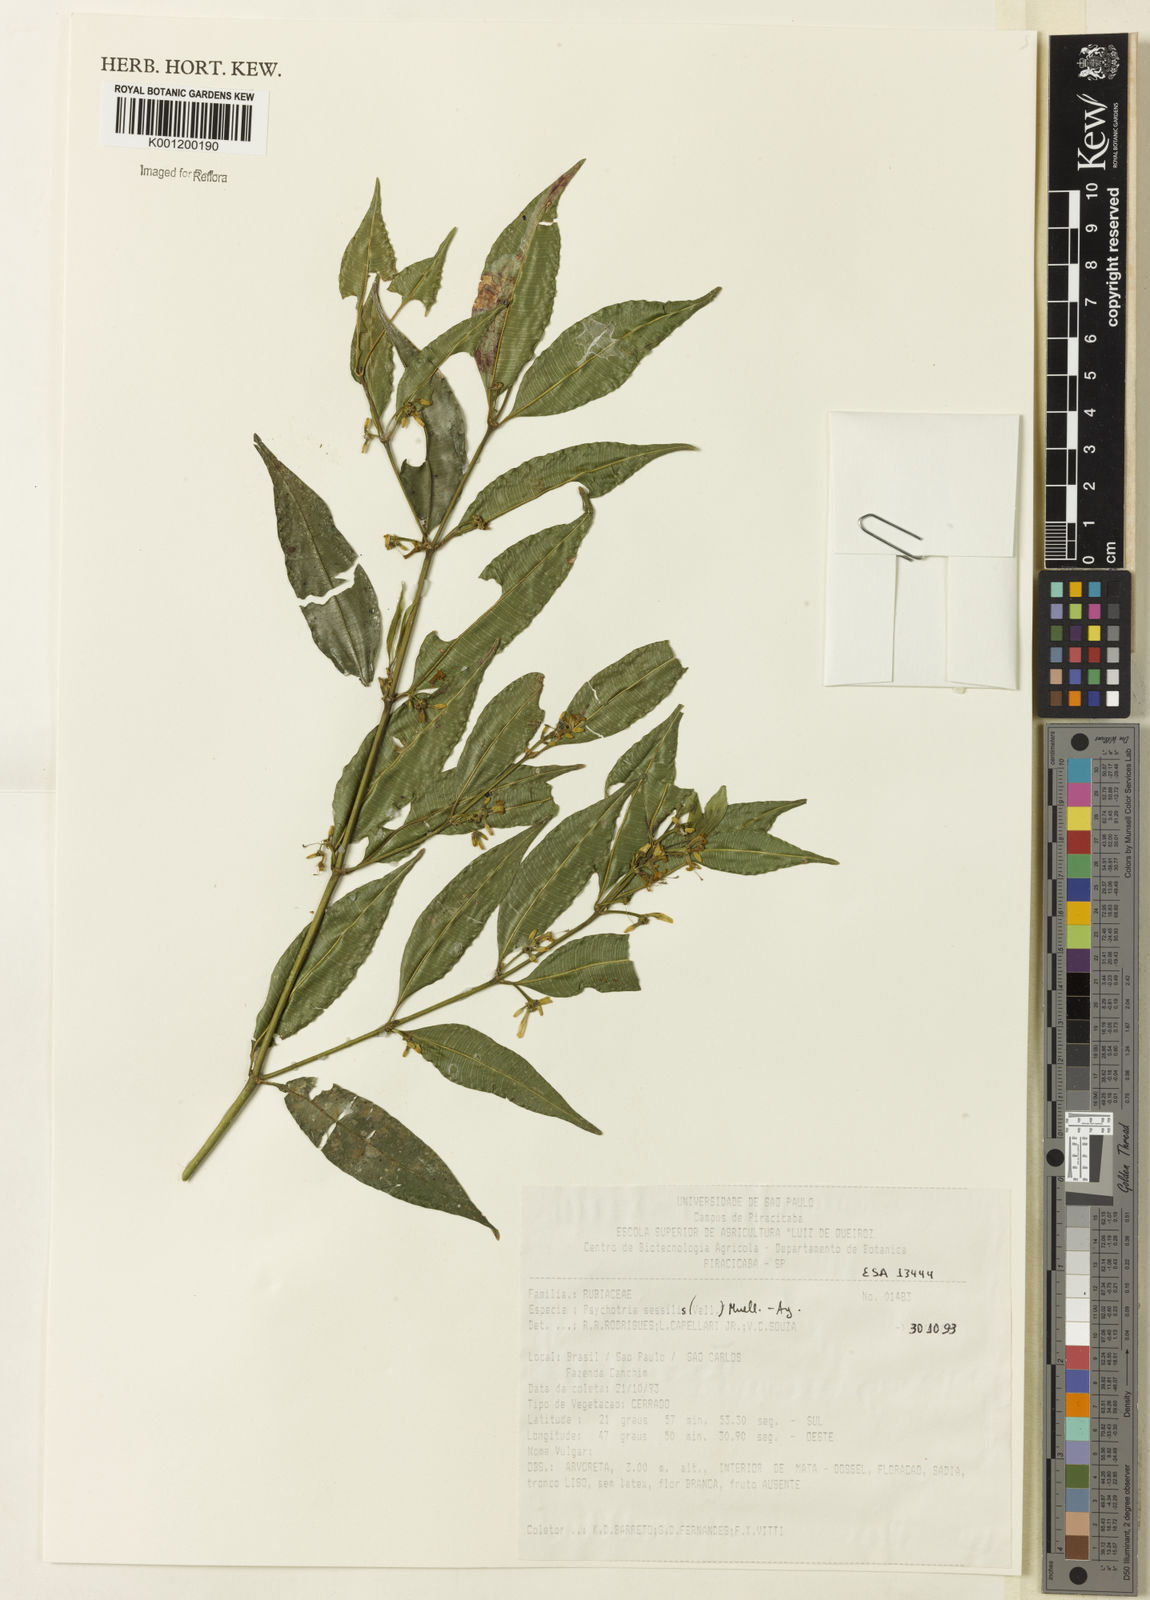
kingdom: Plantae
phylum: Tracheophyta
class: Magnoliopsida
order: Gentianales
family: Rubiaceae
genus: Rudgea
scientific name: Rudgea sessilis
